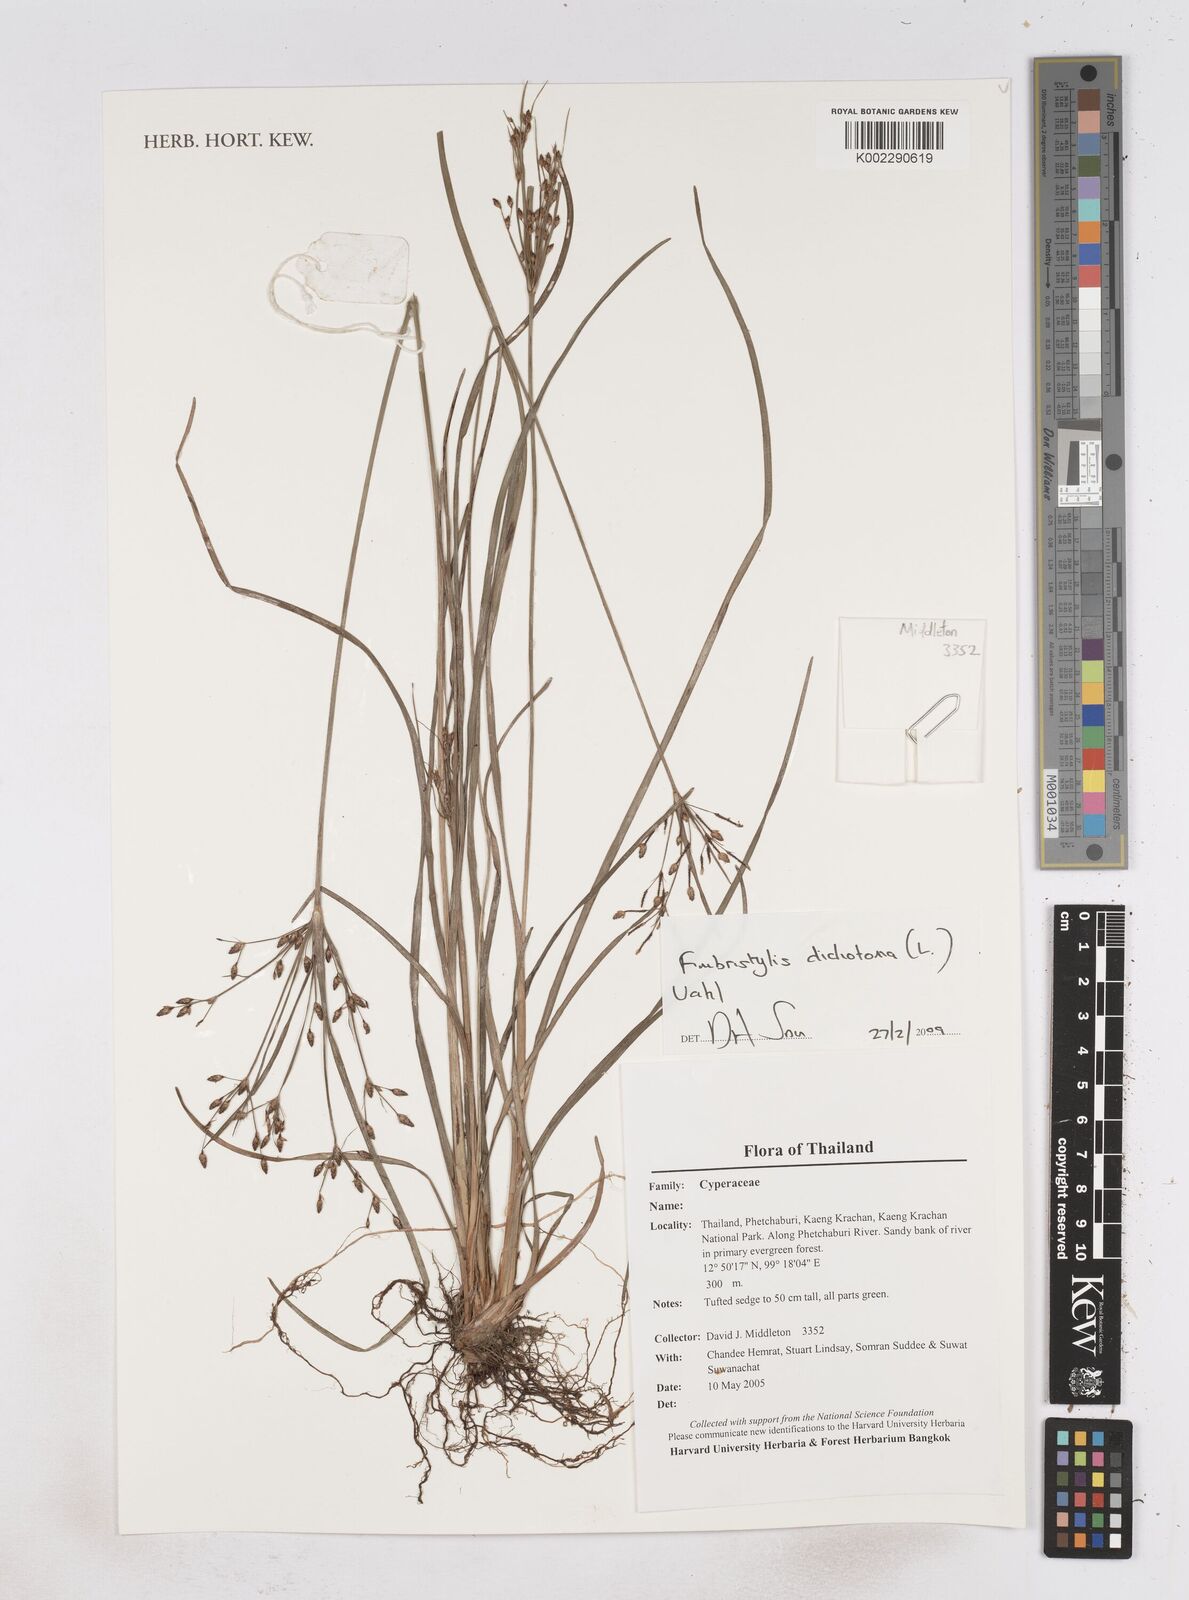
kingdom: Plantae
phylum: Tracheophyta
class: Liliopsida
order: Poales
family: Cyperaceae
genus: Fimbristylis
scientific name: Fimbristylis dichotoma
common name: Forked fimbry
